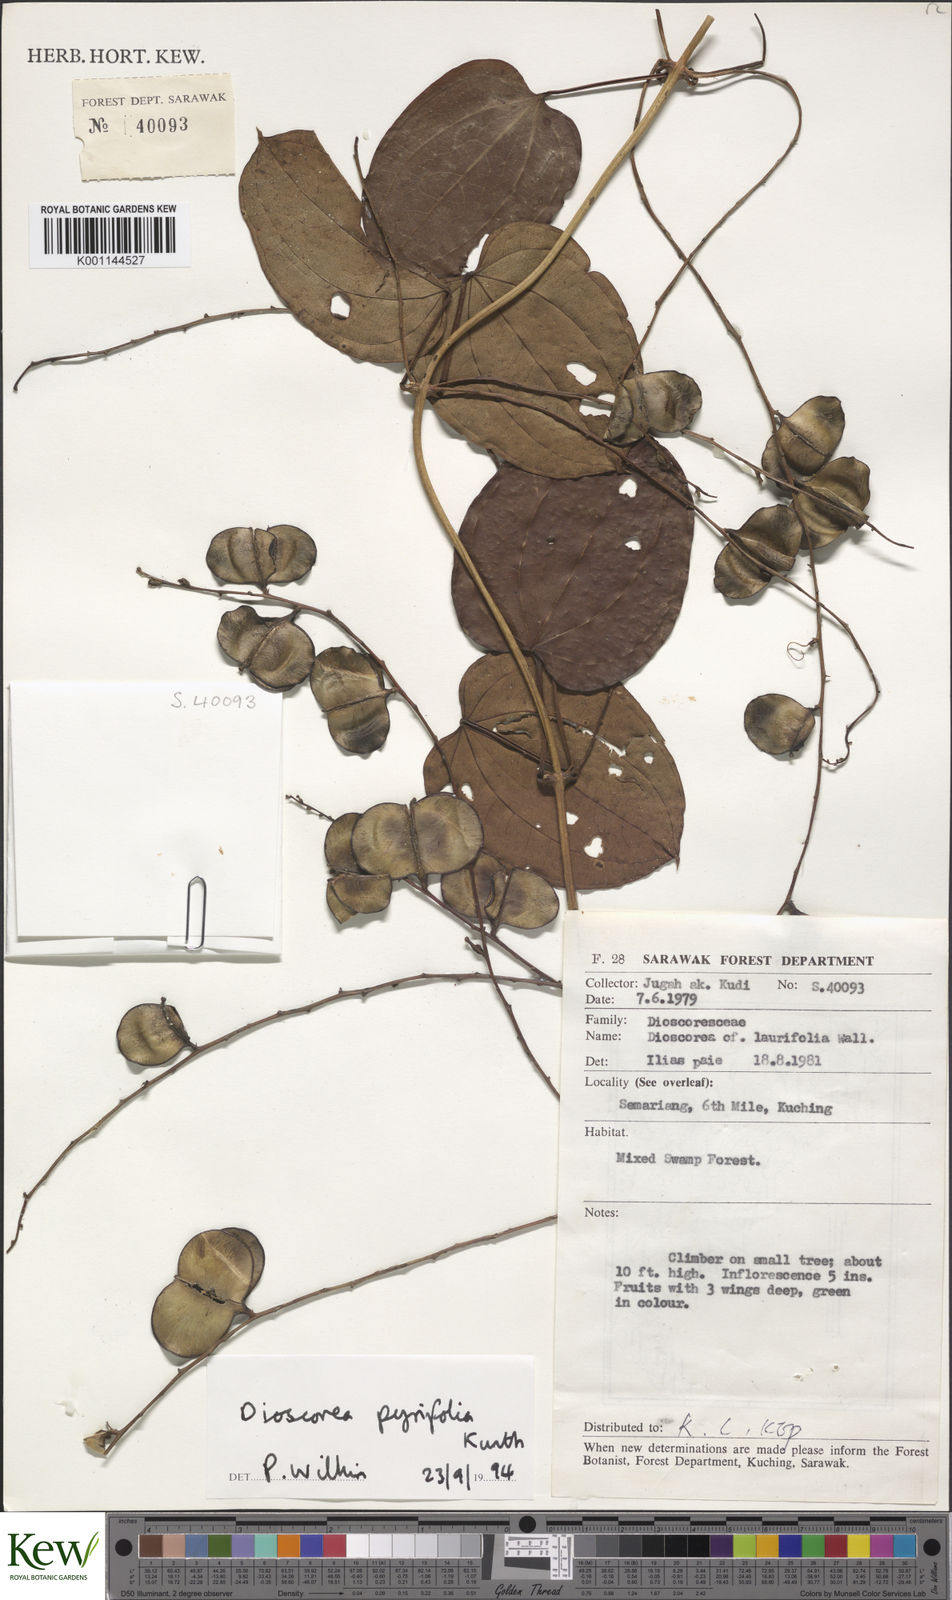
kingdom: Plantae
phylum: Tracheophyta
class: Liliopsida
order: Dioscoreales
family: Dioscoreaceae
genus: Dioscorea
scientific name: Dioscorea pyrifolia
